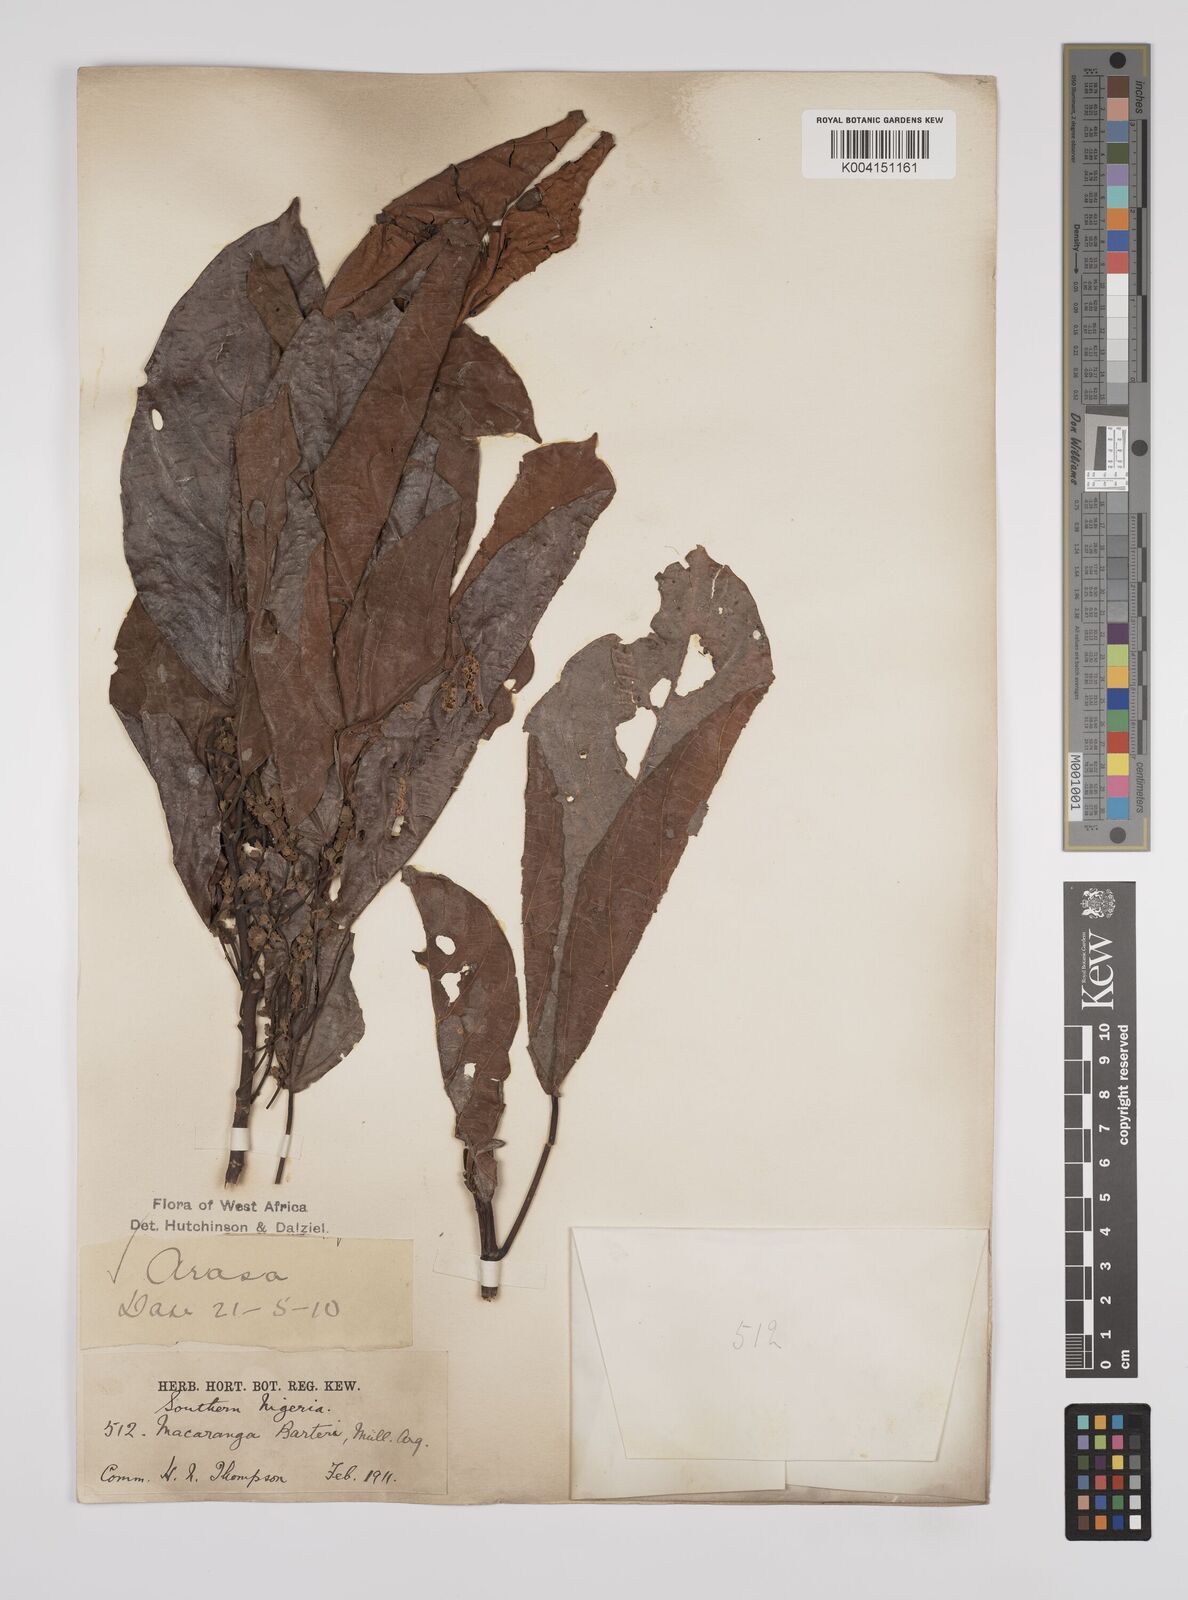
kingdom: Plantae
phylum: Tracheophyta
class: Magnoliopsida
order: Malpighiales
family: Euphorbiaceae
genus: Macaranga
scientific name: Macaranga barteri
